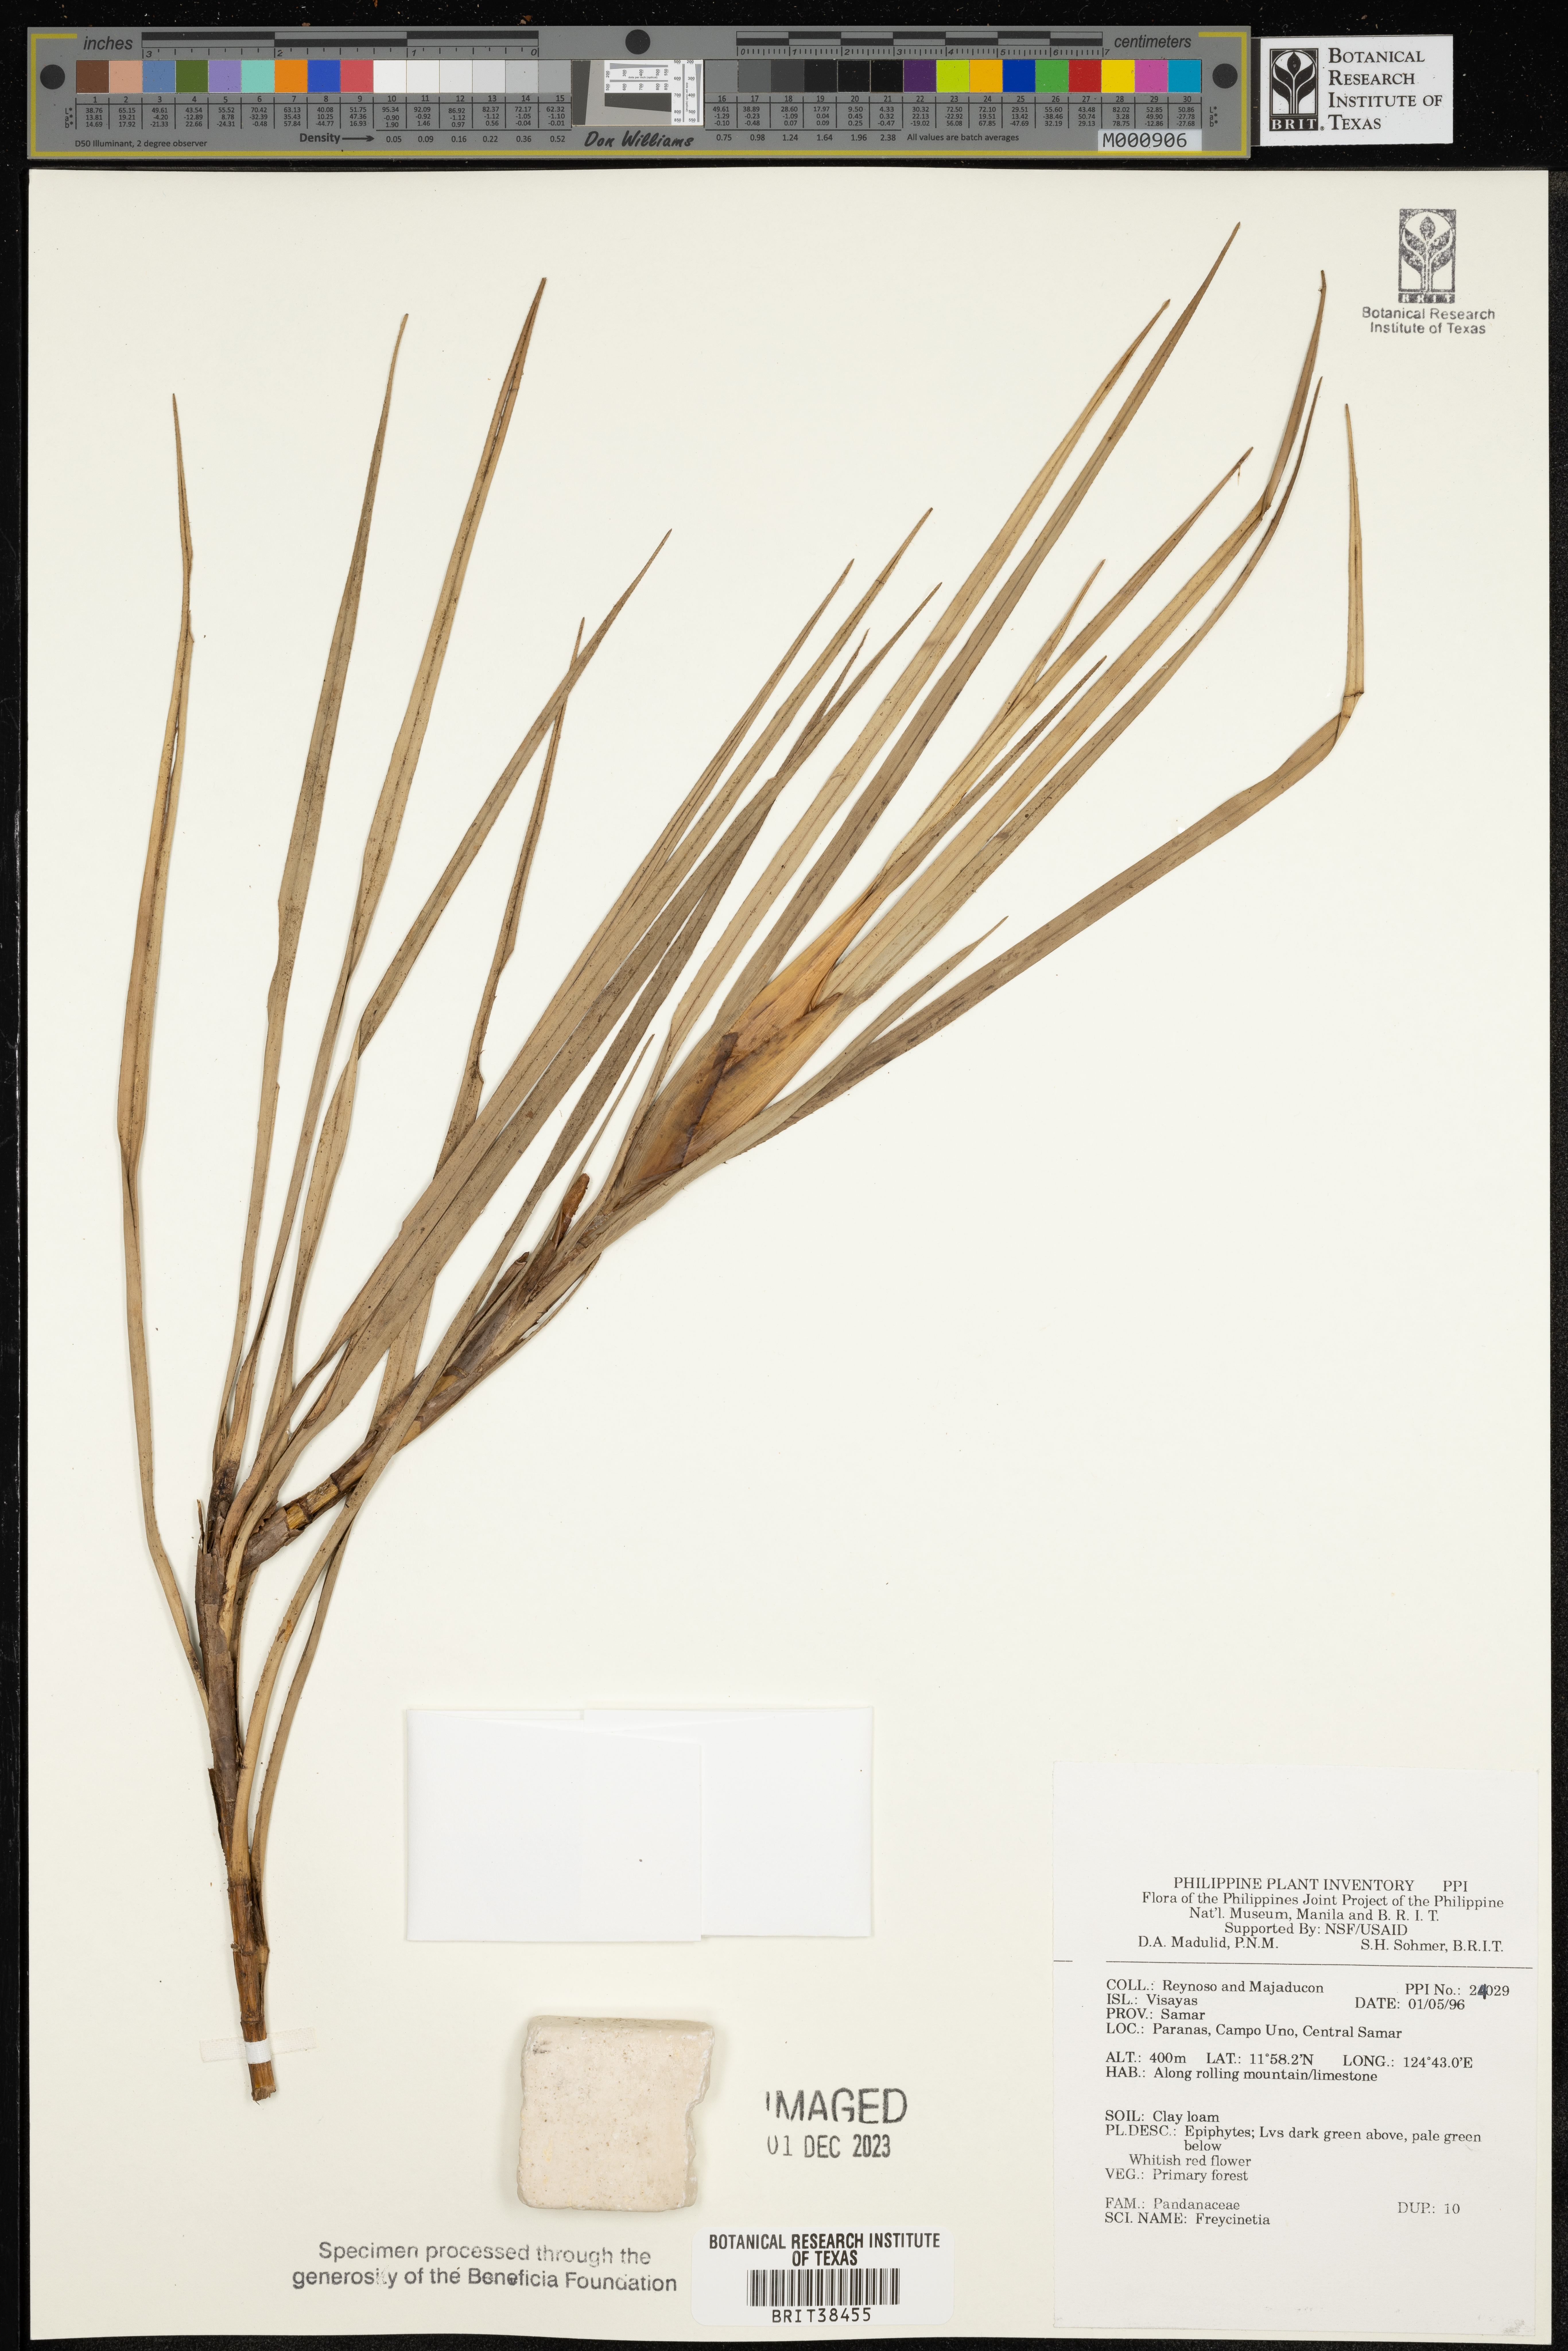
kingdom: Plantae
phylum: Tracheophyta
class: Liliopsida
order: Pandanales
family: Pandanaceae
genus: Freycinetia
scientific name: Freycinetia
